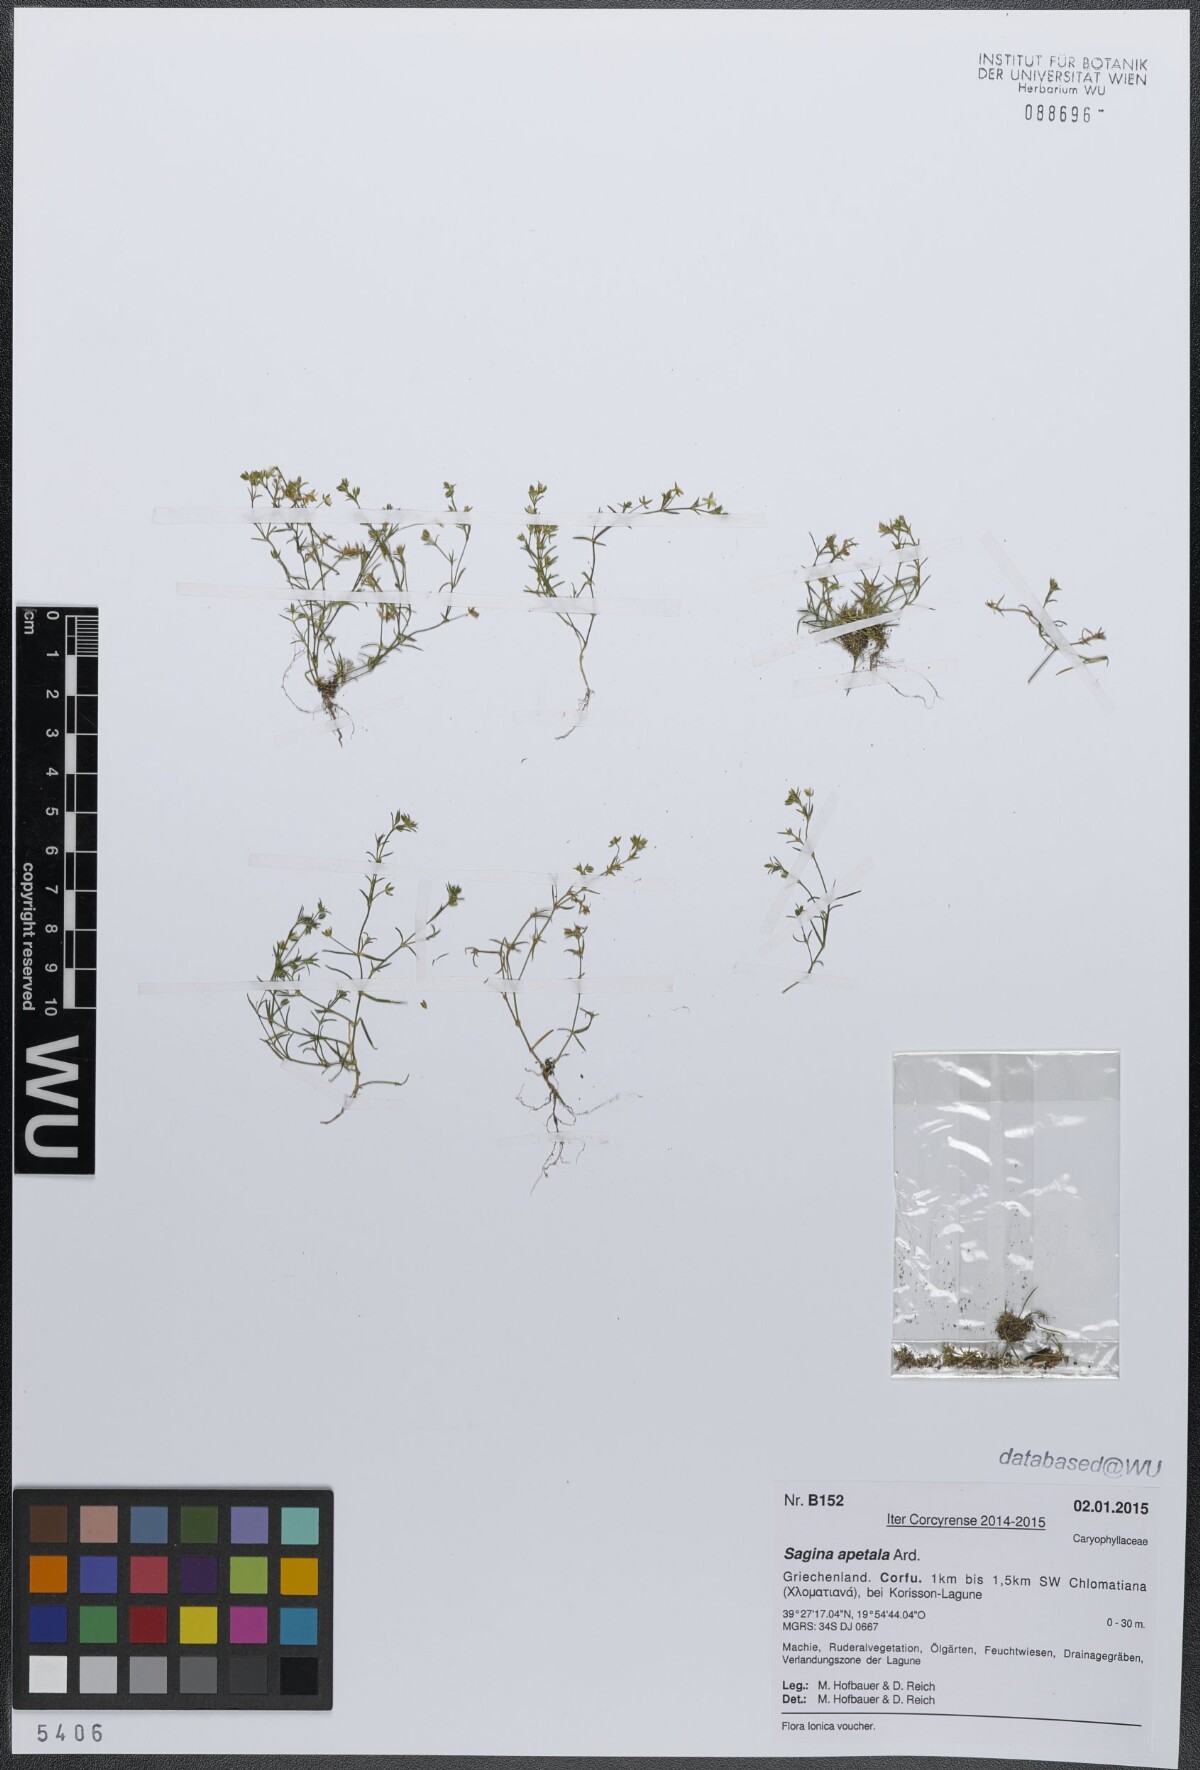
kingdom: Plantae
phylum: Tracheophyta
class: Magnoliopsida
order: Caryophyllales
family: Caryophyllaceae
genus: Sagina
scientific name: Sagina apetala
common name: Annual pearlwort
